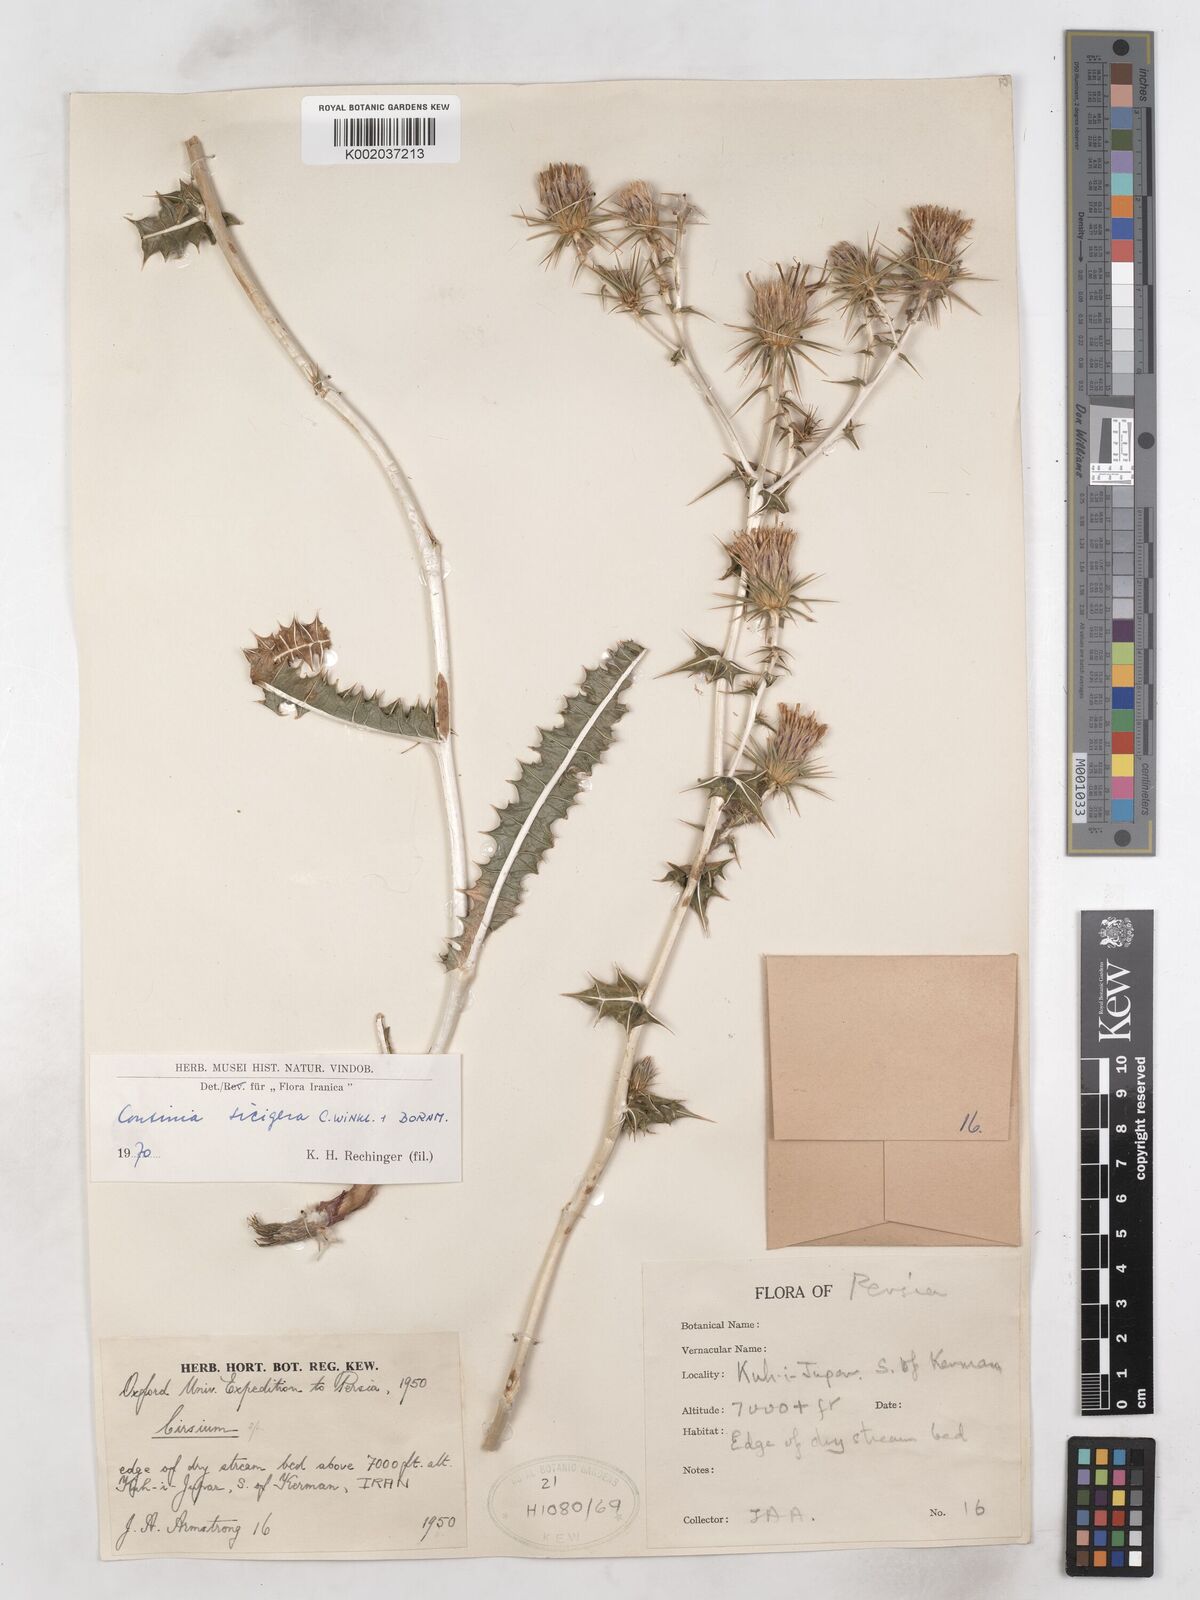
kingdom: Plantae
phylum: Tracheophyta
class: Magnoliopsida
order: Asterales
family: Asteraceae
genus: Cousinia
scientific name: Cousinia sicigera
